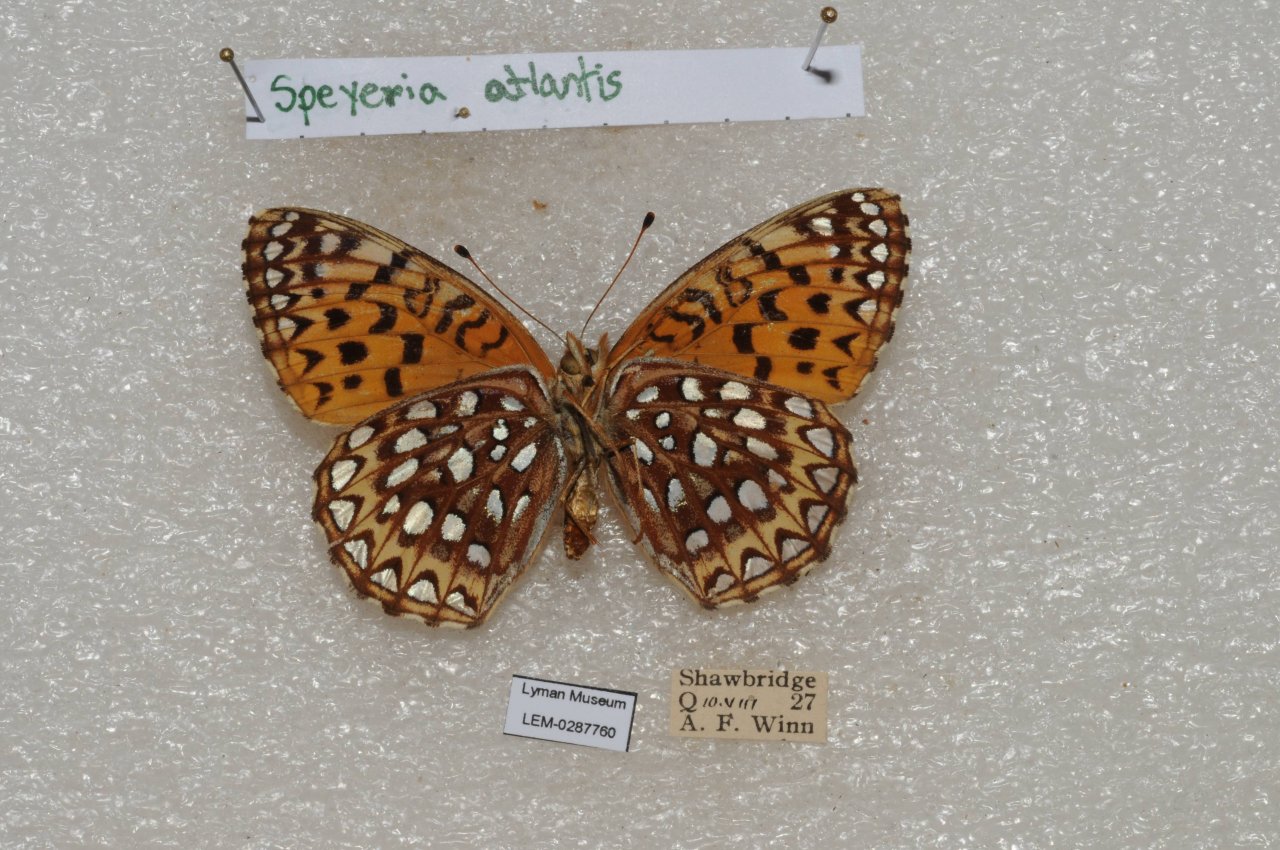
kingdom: Animalia
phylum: Arthropoda
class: Insecta
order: Lepidoptera
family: Nymphalidae
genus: Speyeria
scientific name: Speyeria atlantis
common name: Atlantis Fritillary
